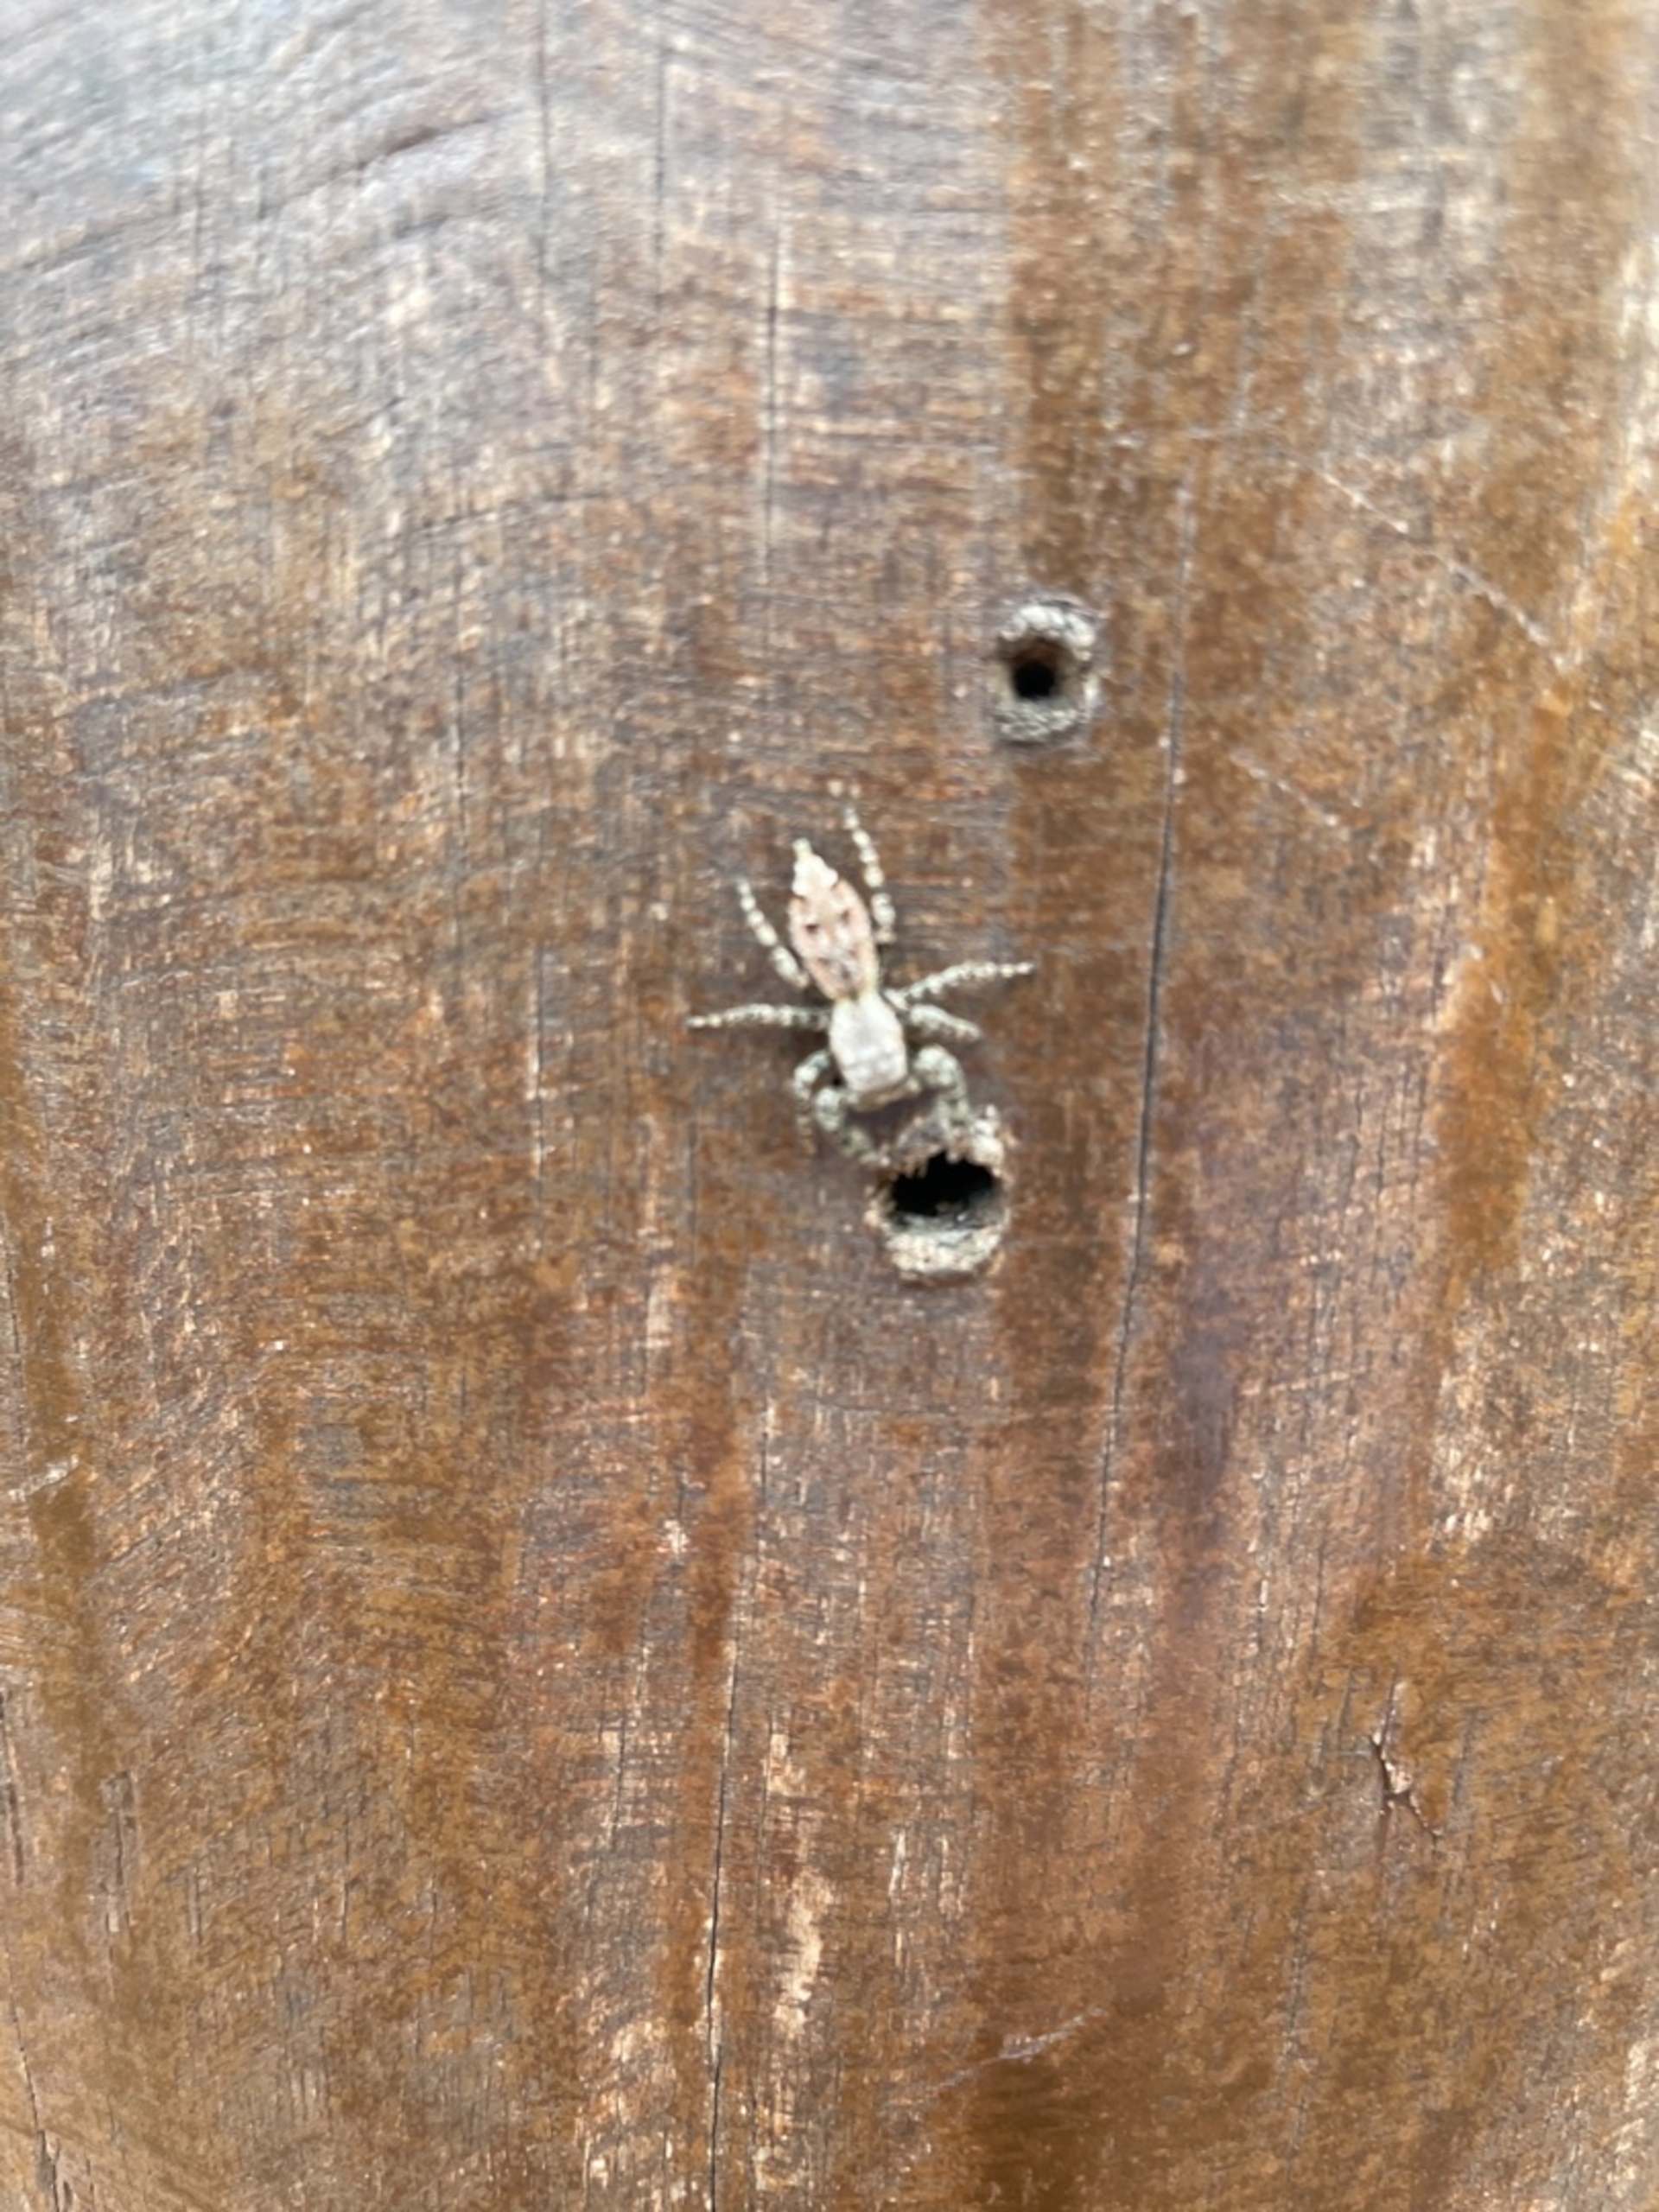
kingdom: Animalia
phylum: Arthropoda
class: Arachnida
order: Araneae
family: Salticidae
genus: Marpissa
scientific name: Marpissa muscosa
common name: Stor springedderkop
